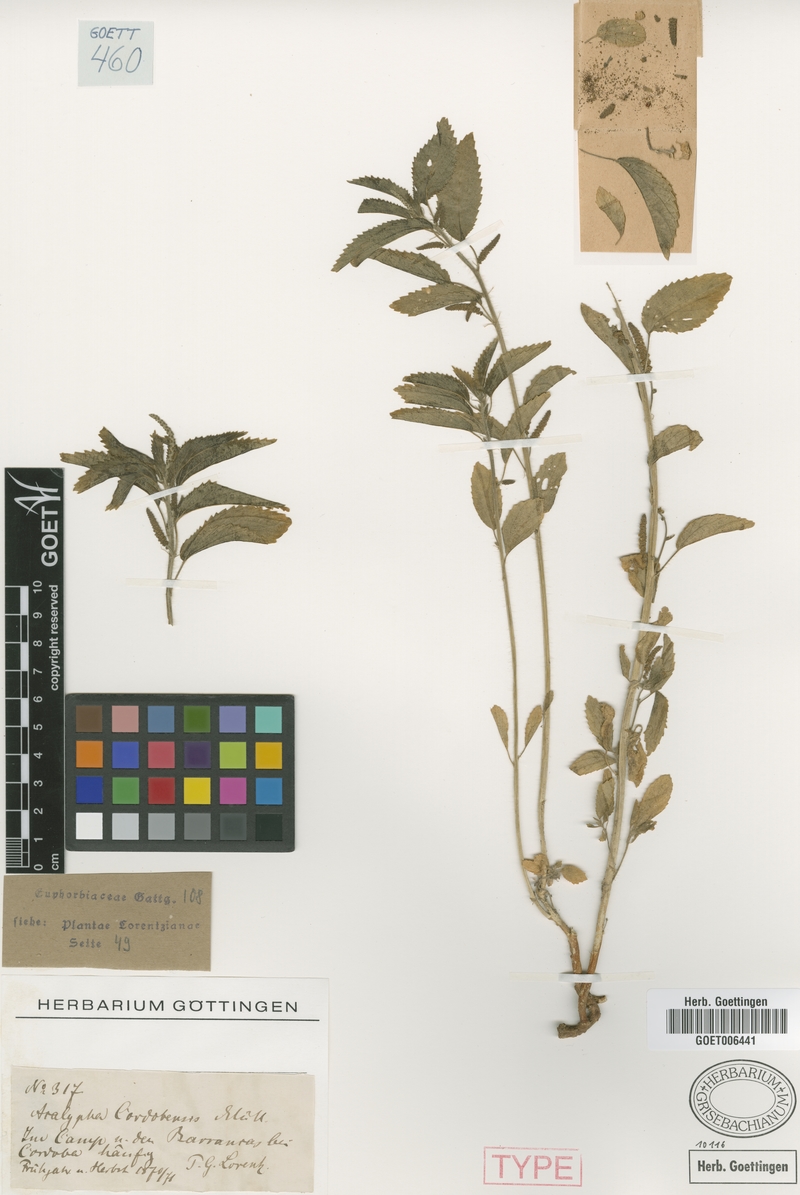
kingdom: Plantae
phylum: Tracheophyta
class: Magnoliopsida
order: Malpighiales
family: Euphorbiaceae
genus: Acalypha
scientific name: Acalypha cordobensis
